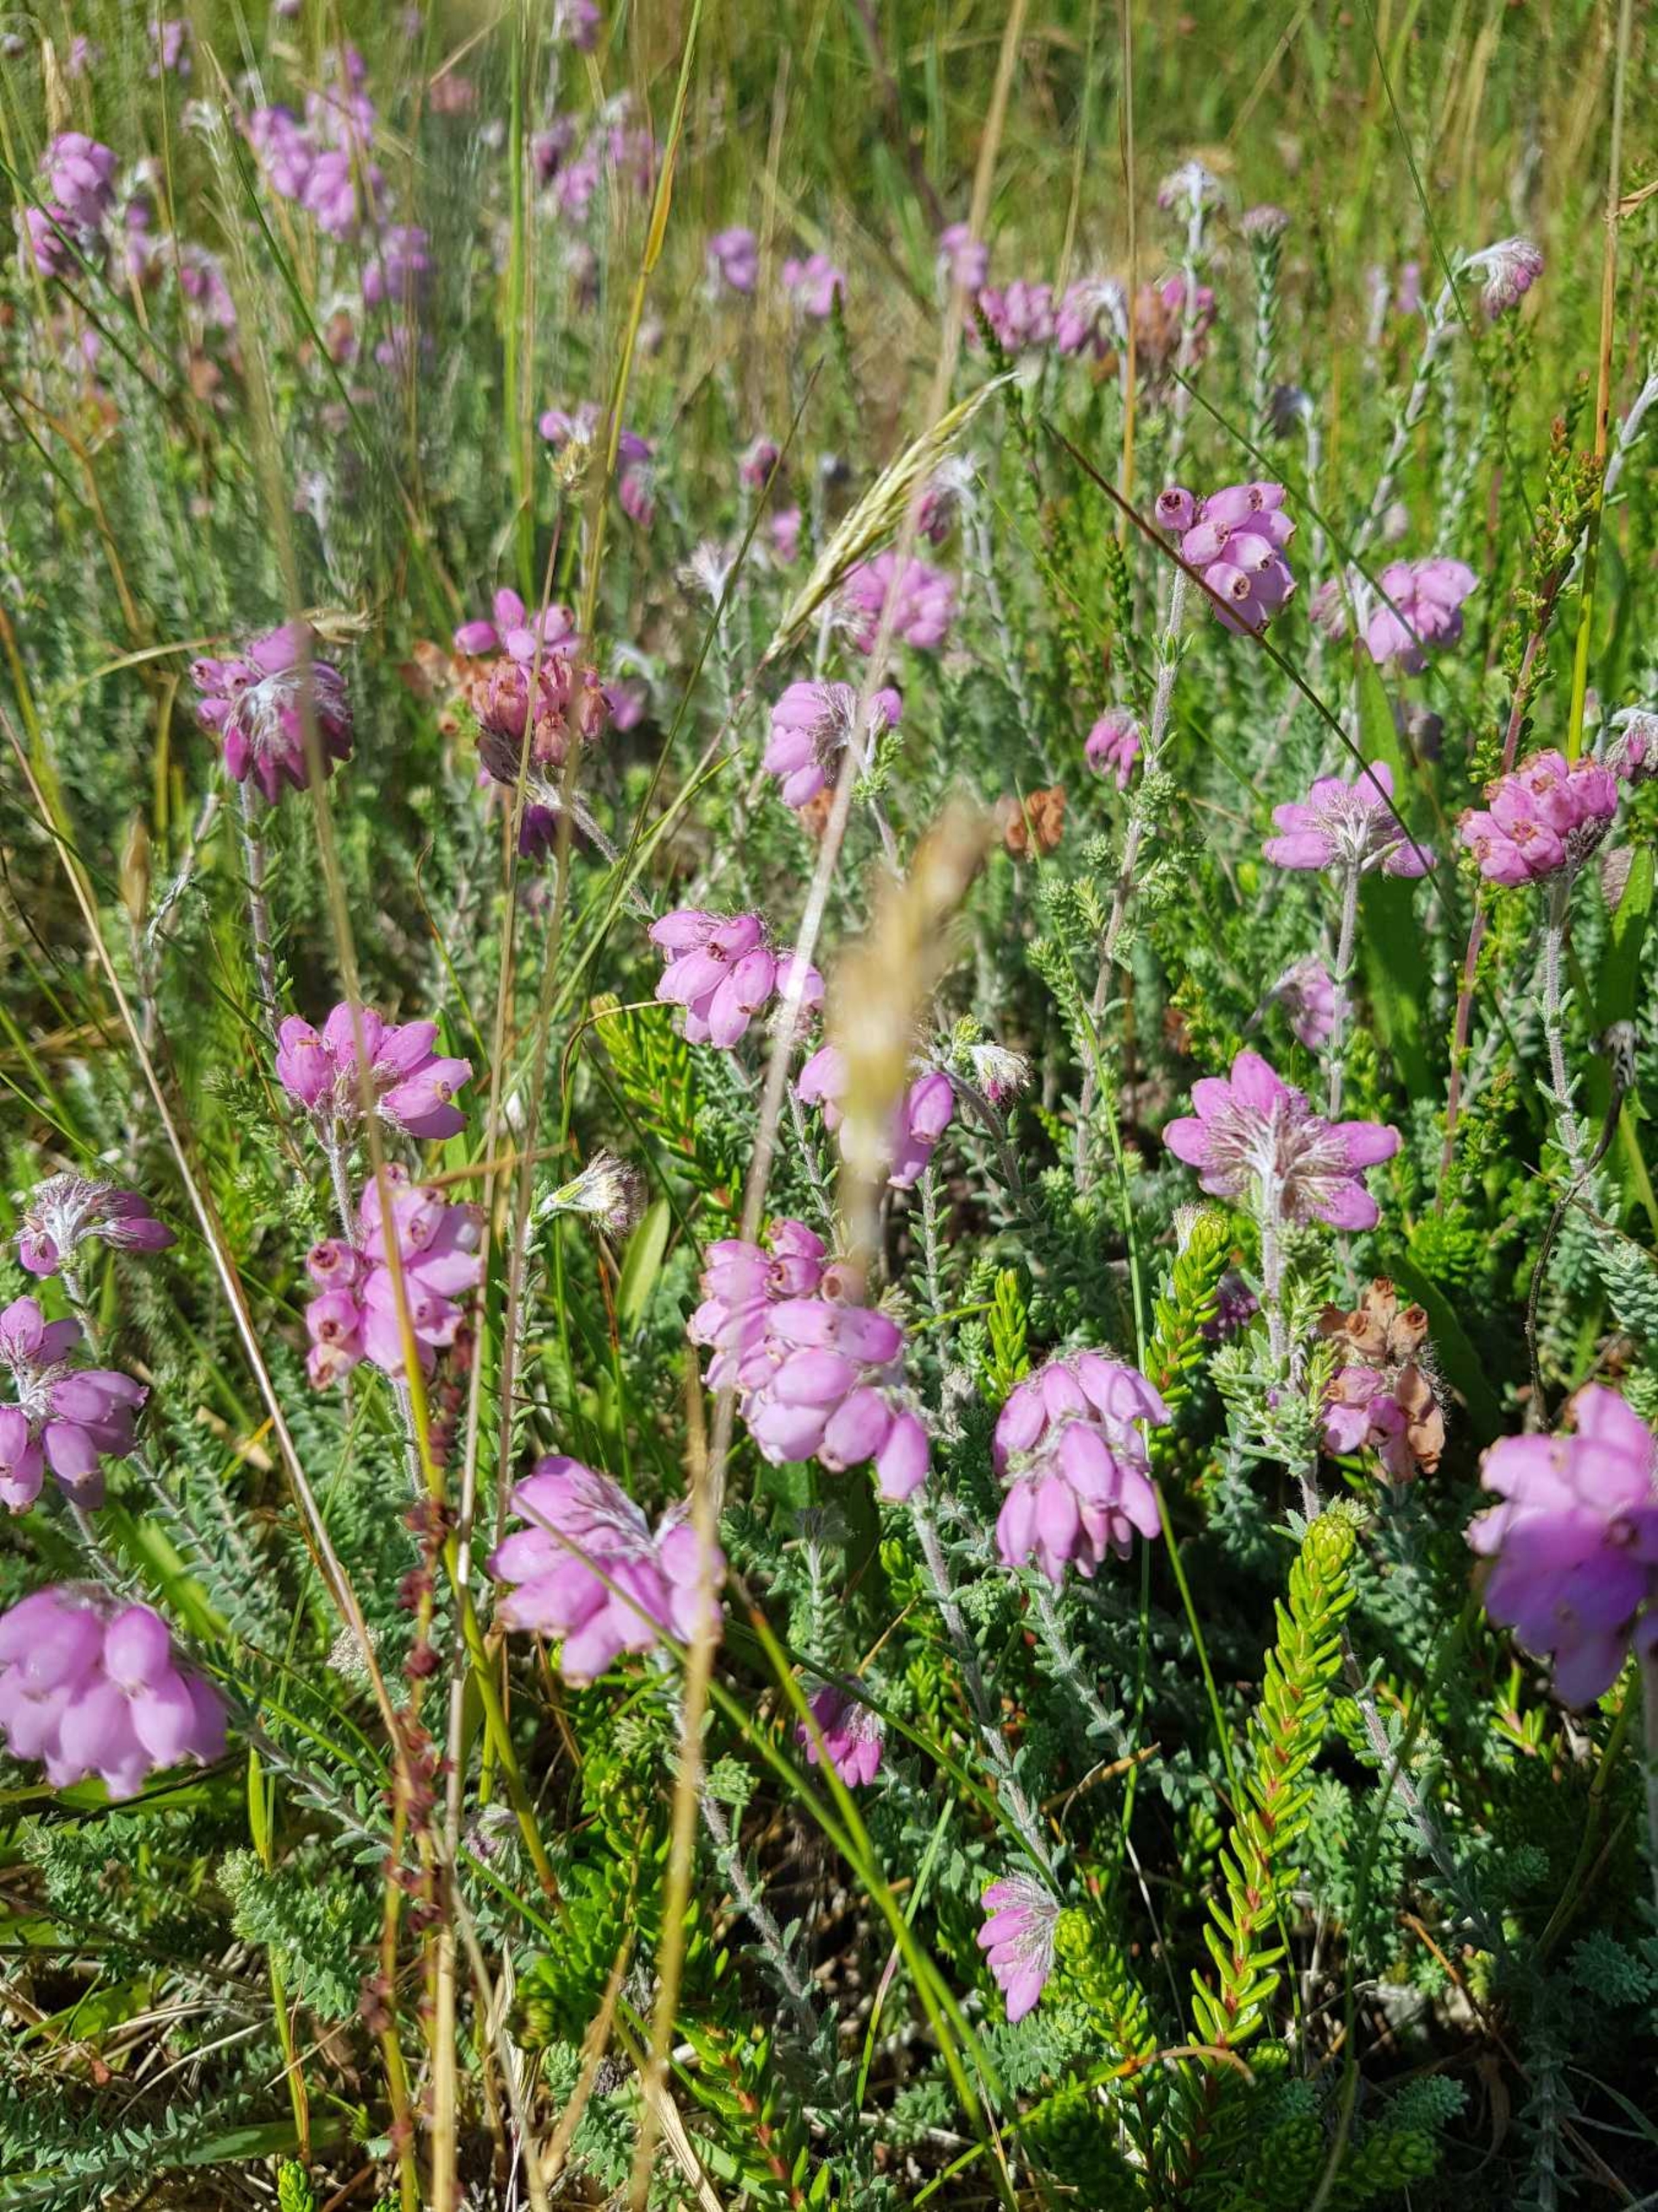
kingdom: Plantae
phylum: Tracheophyta
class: Magnoliopsida
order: Ericales
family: Ericaceae
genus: Erica
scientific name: Erica tetralix
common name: Klokkelyng
